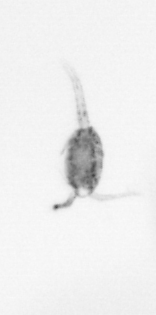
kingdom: Animalia
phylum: Arthropoda
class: Copepoda
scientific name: Copepoda
